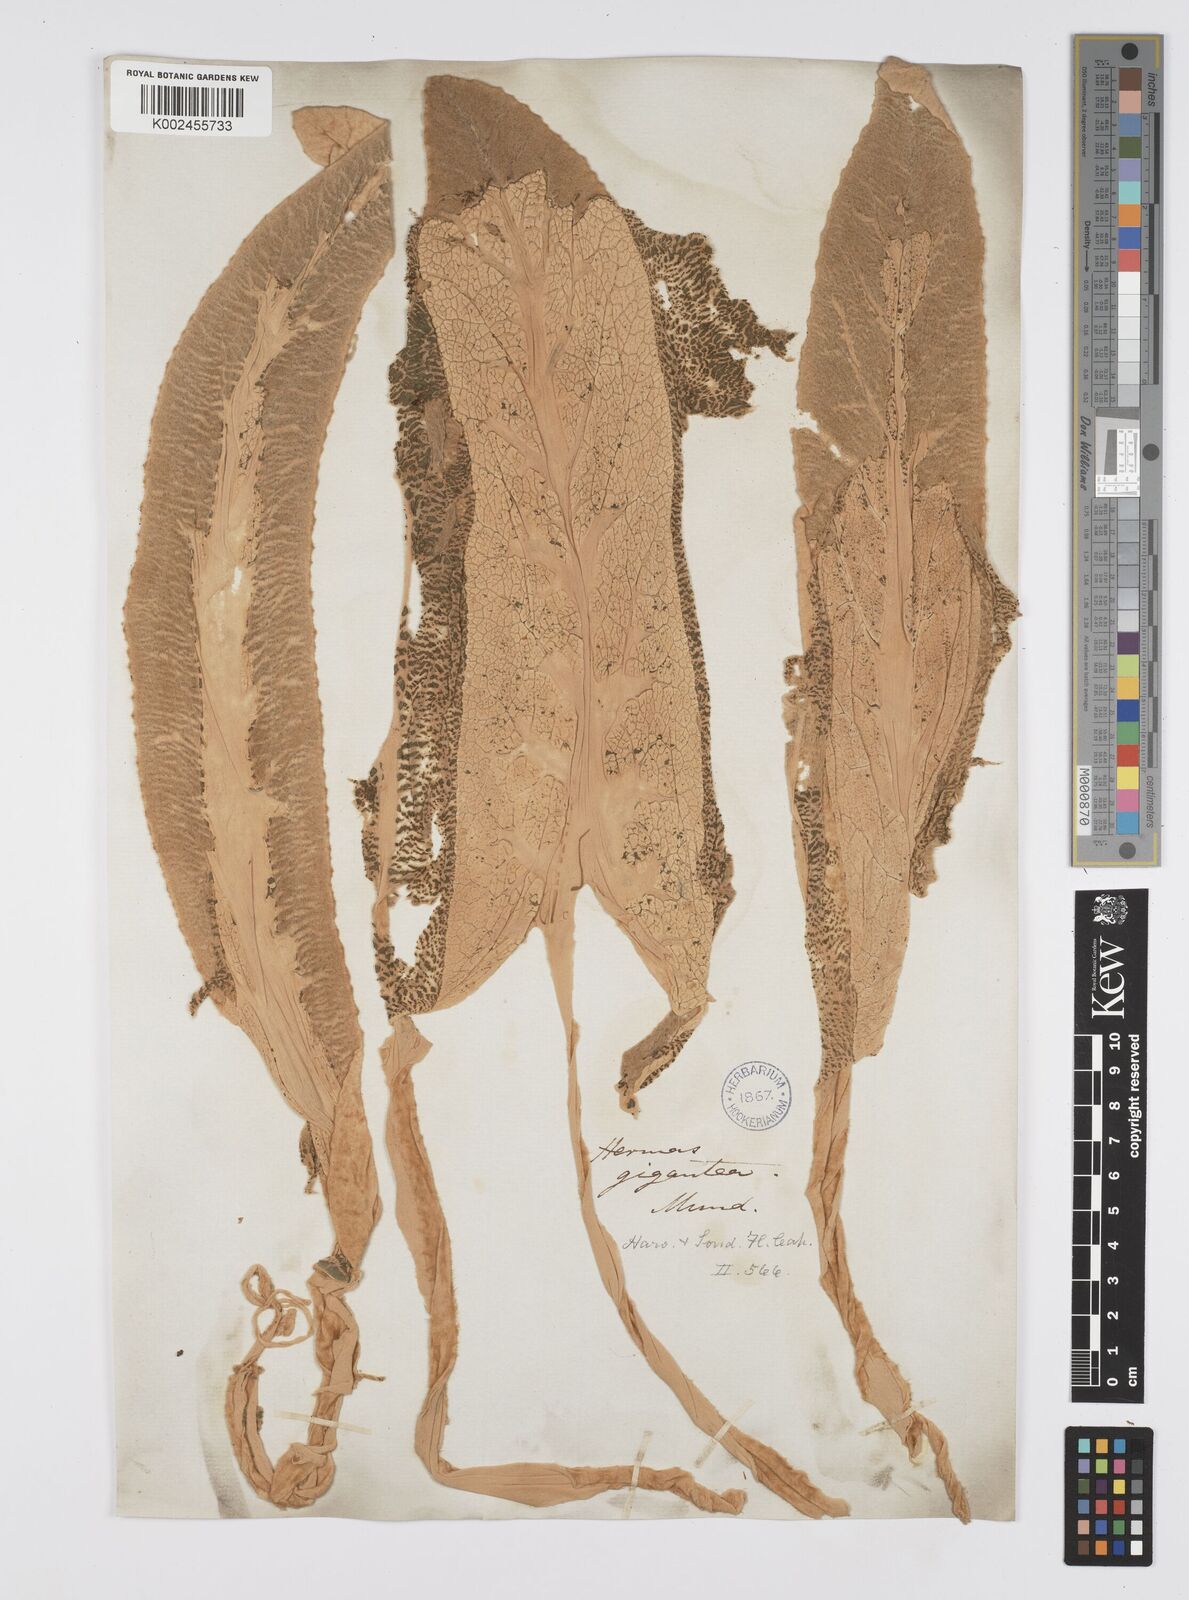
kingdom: Plantae
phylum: Tracheophyta
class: Magnoliopsida
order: Apiales
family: Apiaceae
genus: Hermas
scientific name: Hermas gigantea
